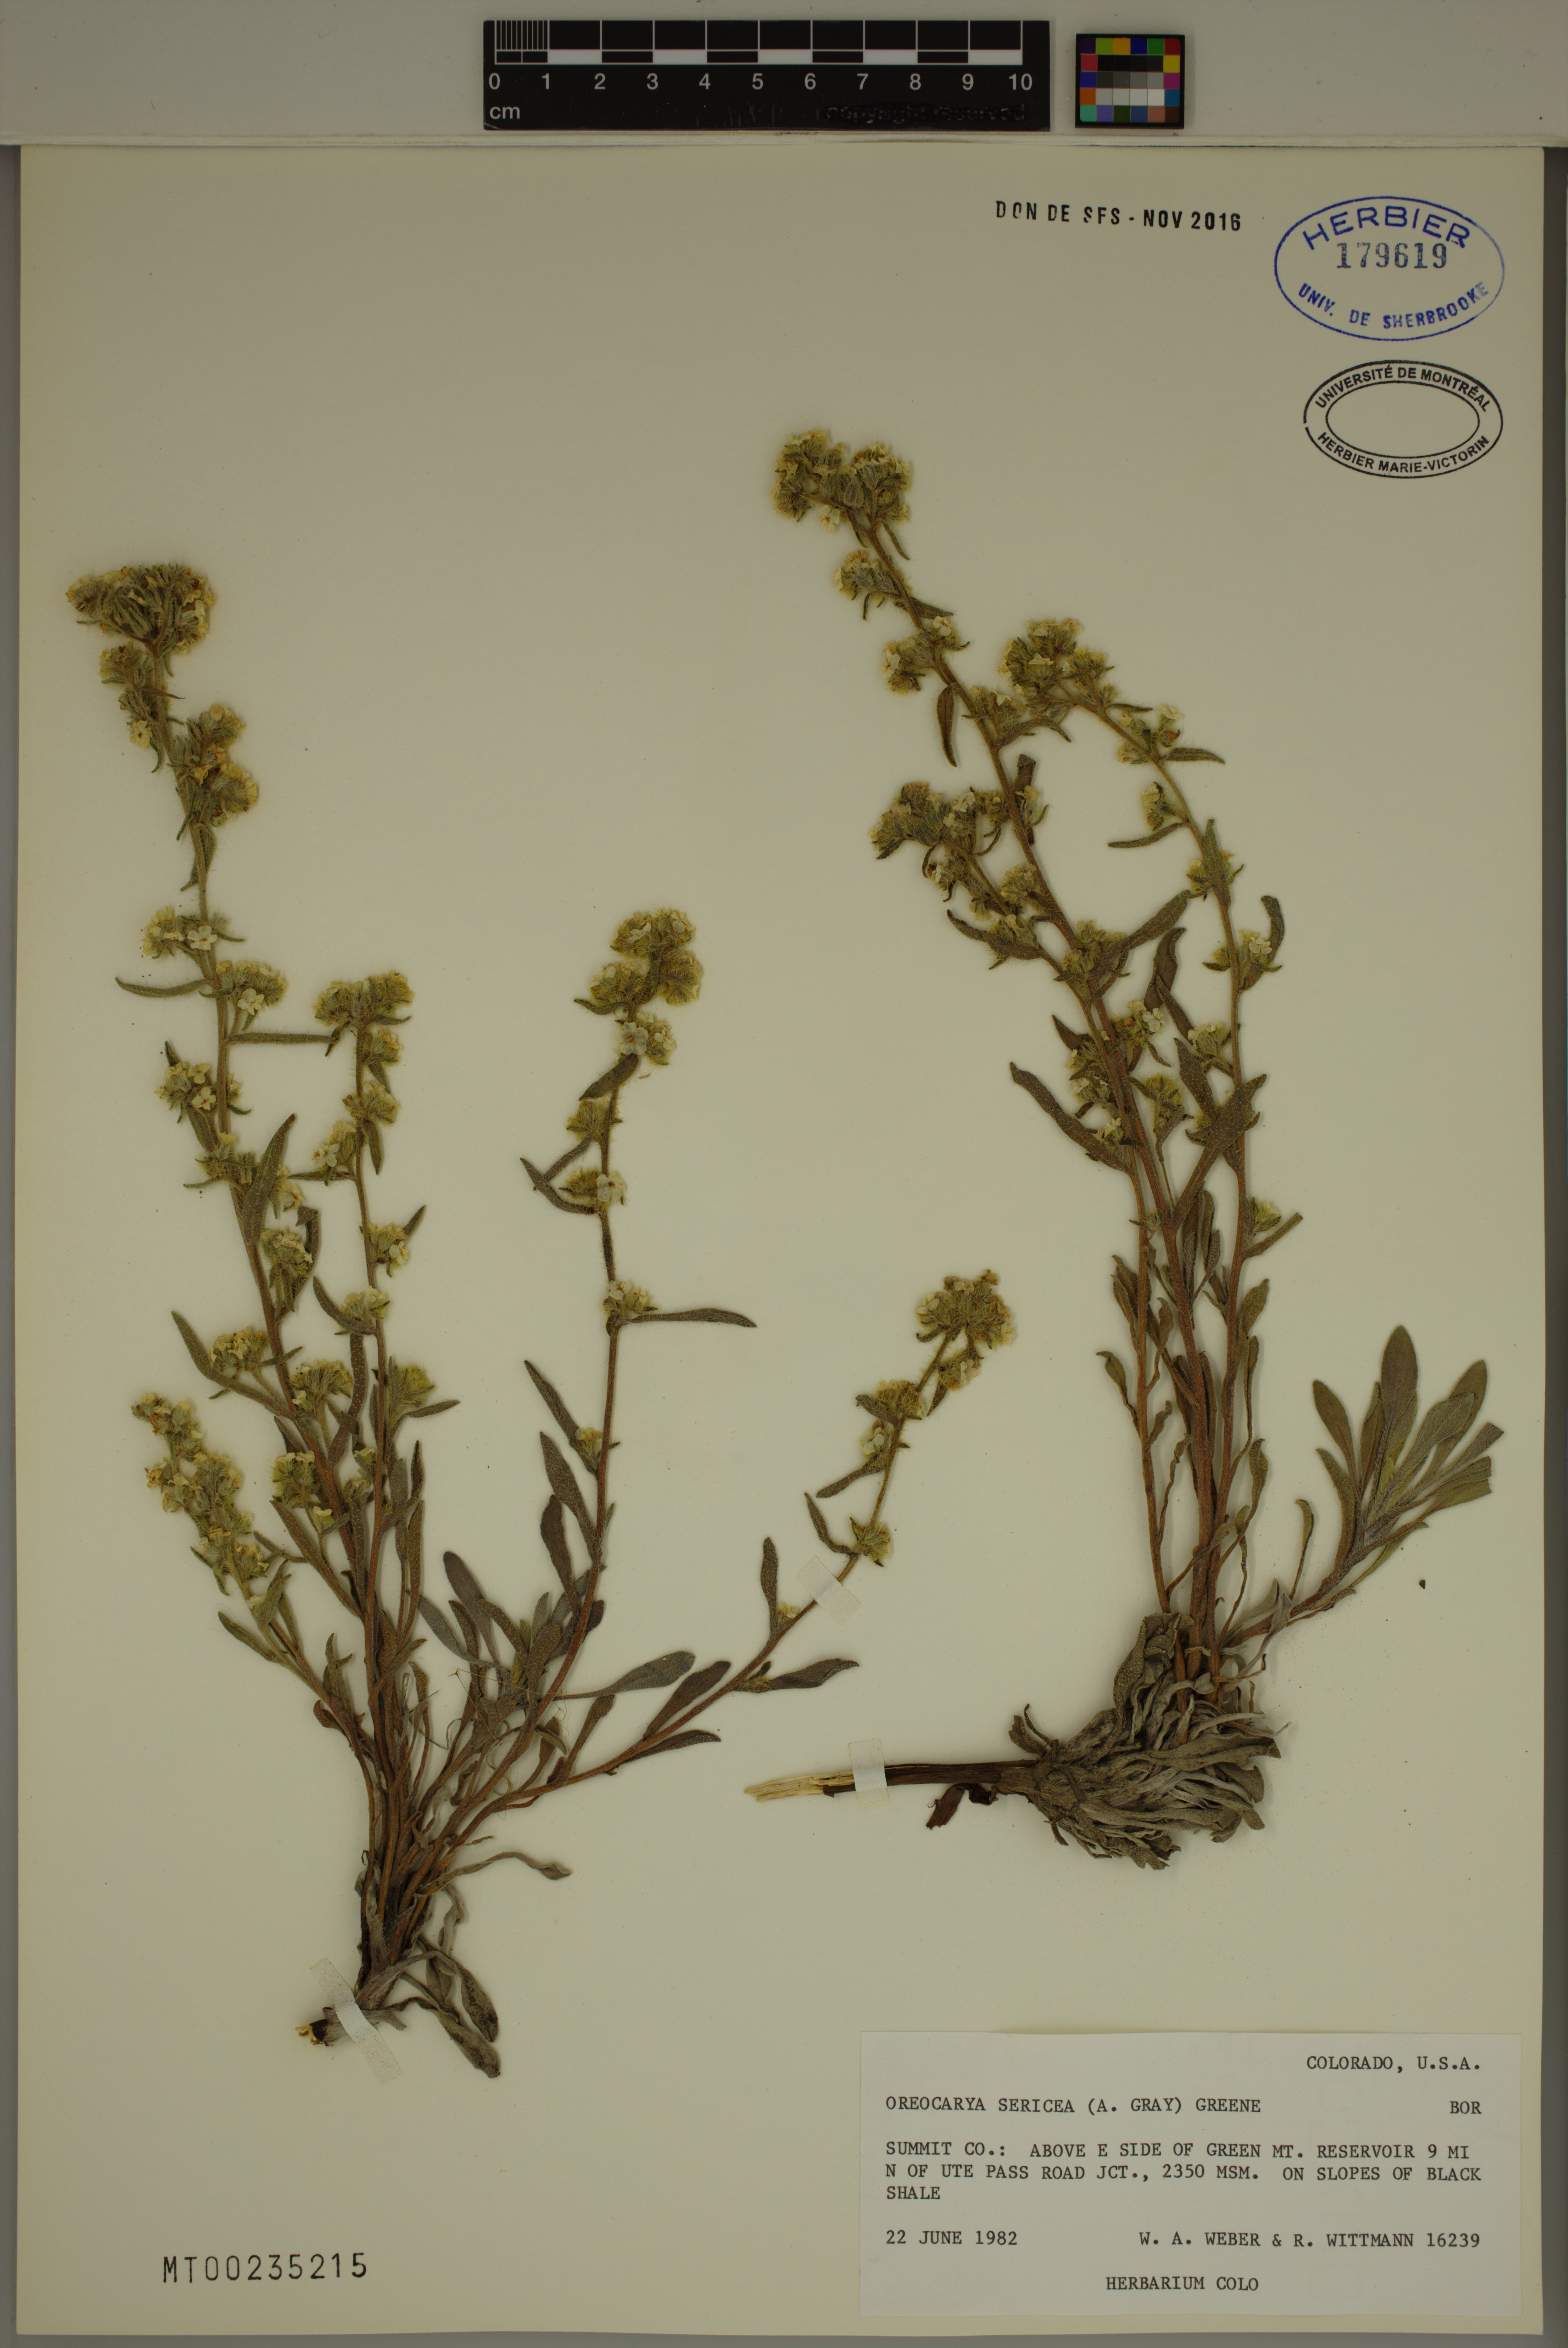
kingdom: Plantae
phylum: Tracheophyta
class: Magnoliopsida
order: Boraginales
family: Boraginaceae
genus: Oreocarya
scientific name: Oreocarya sericea
